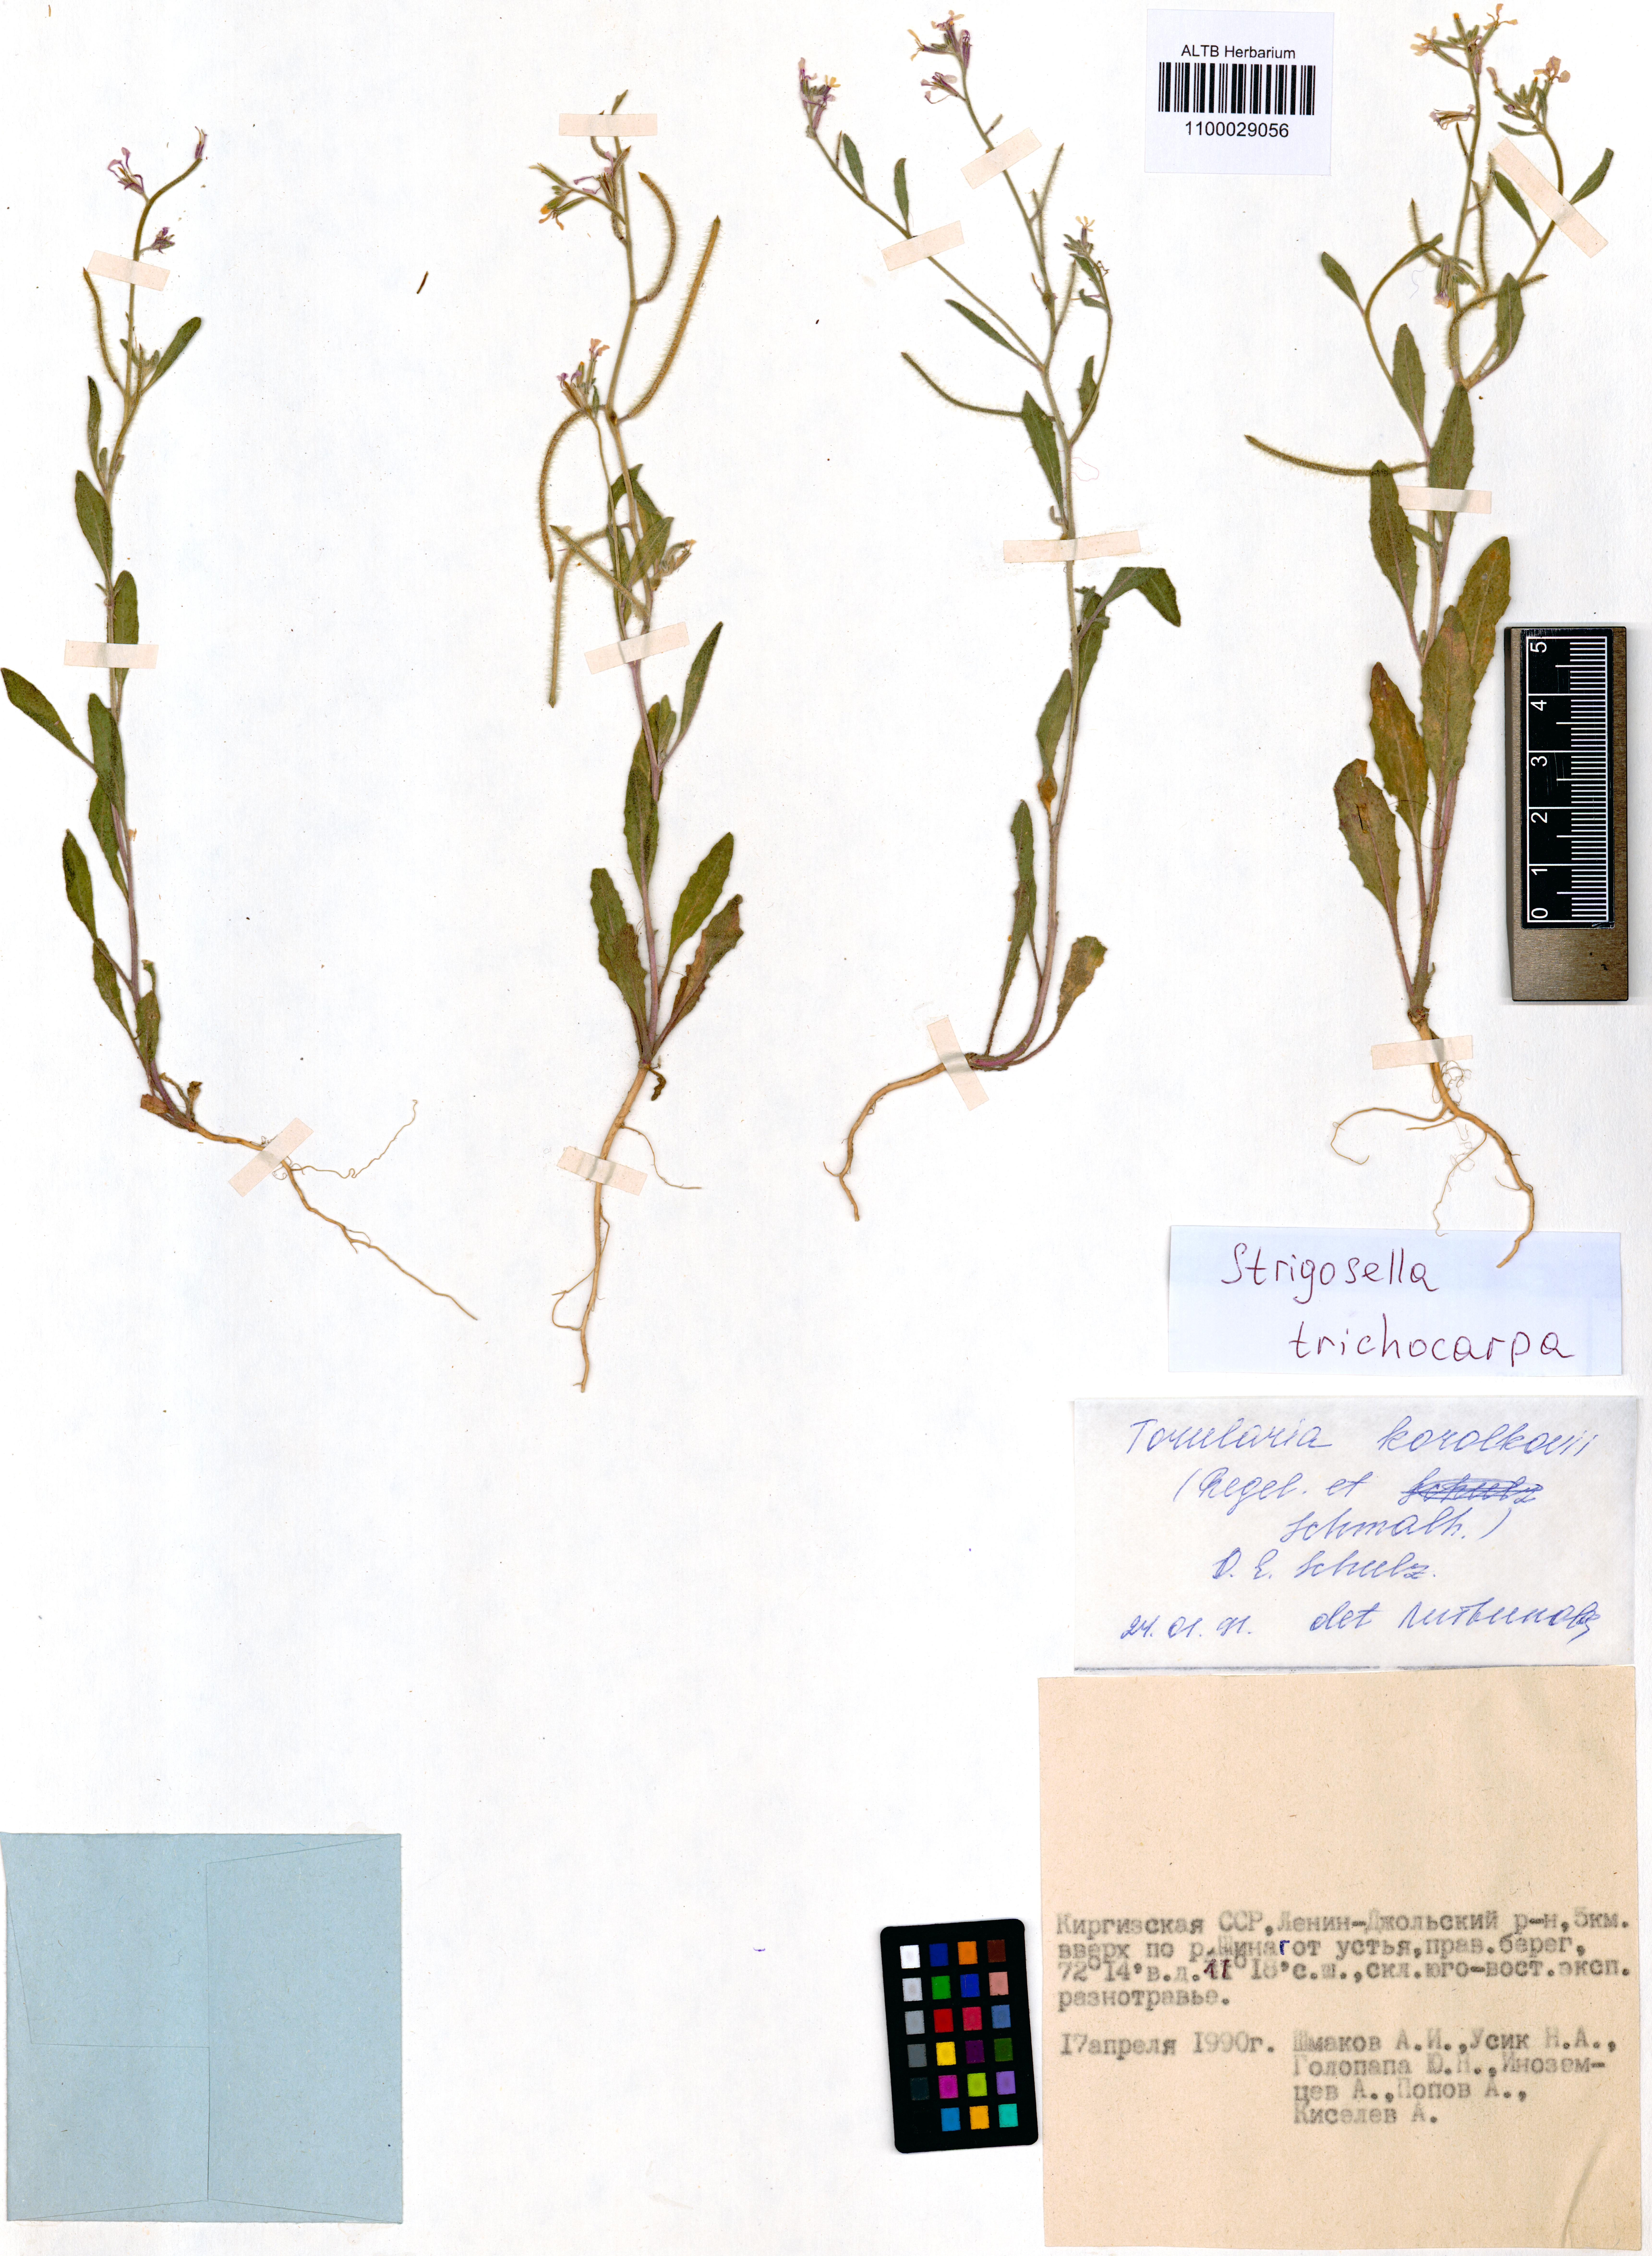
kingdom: Plantae
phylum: Tracheophyta
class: Magnoliopsida
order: Brassicales
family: Brassicaceae
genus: Strigosella
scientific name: Strigosella trichocarpa
